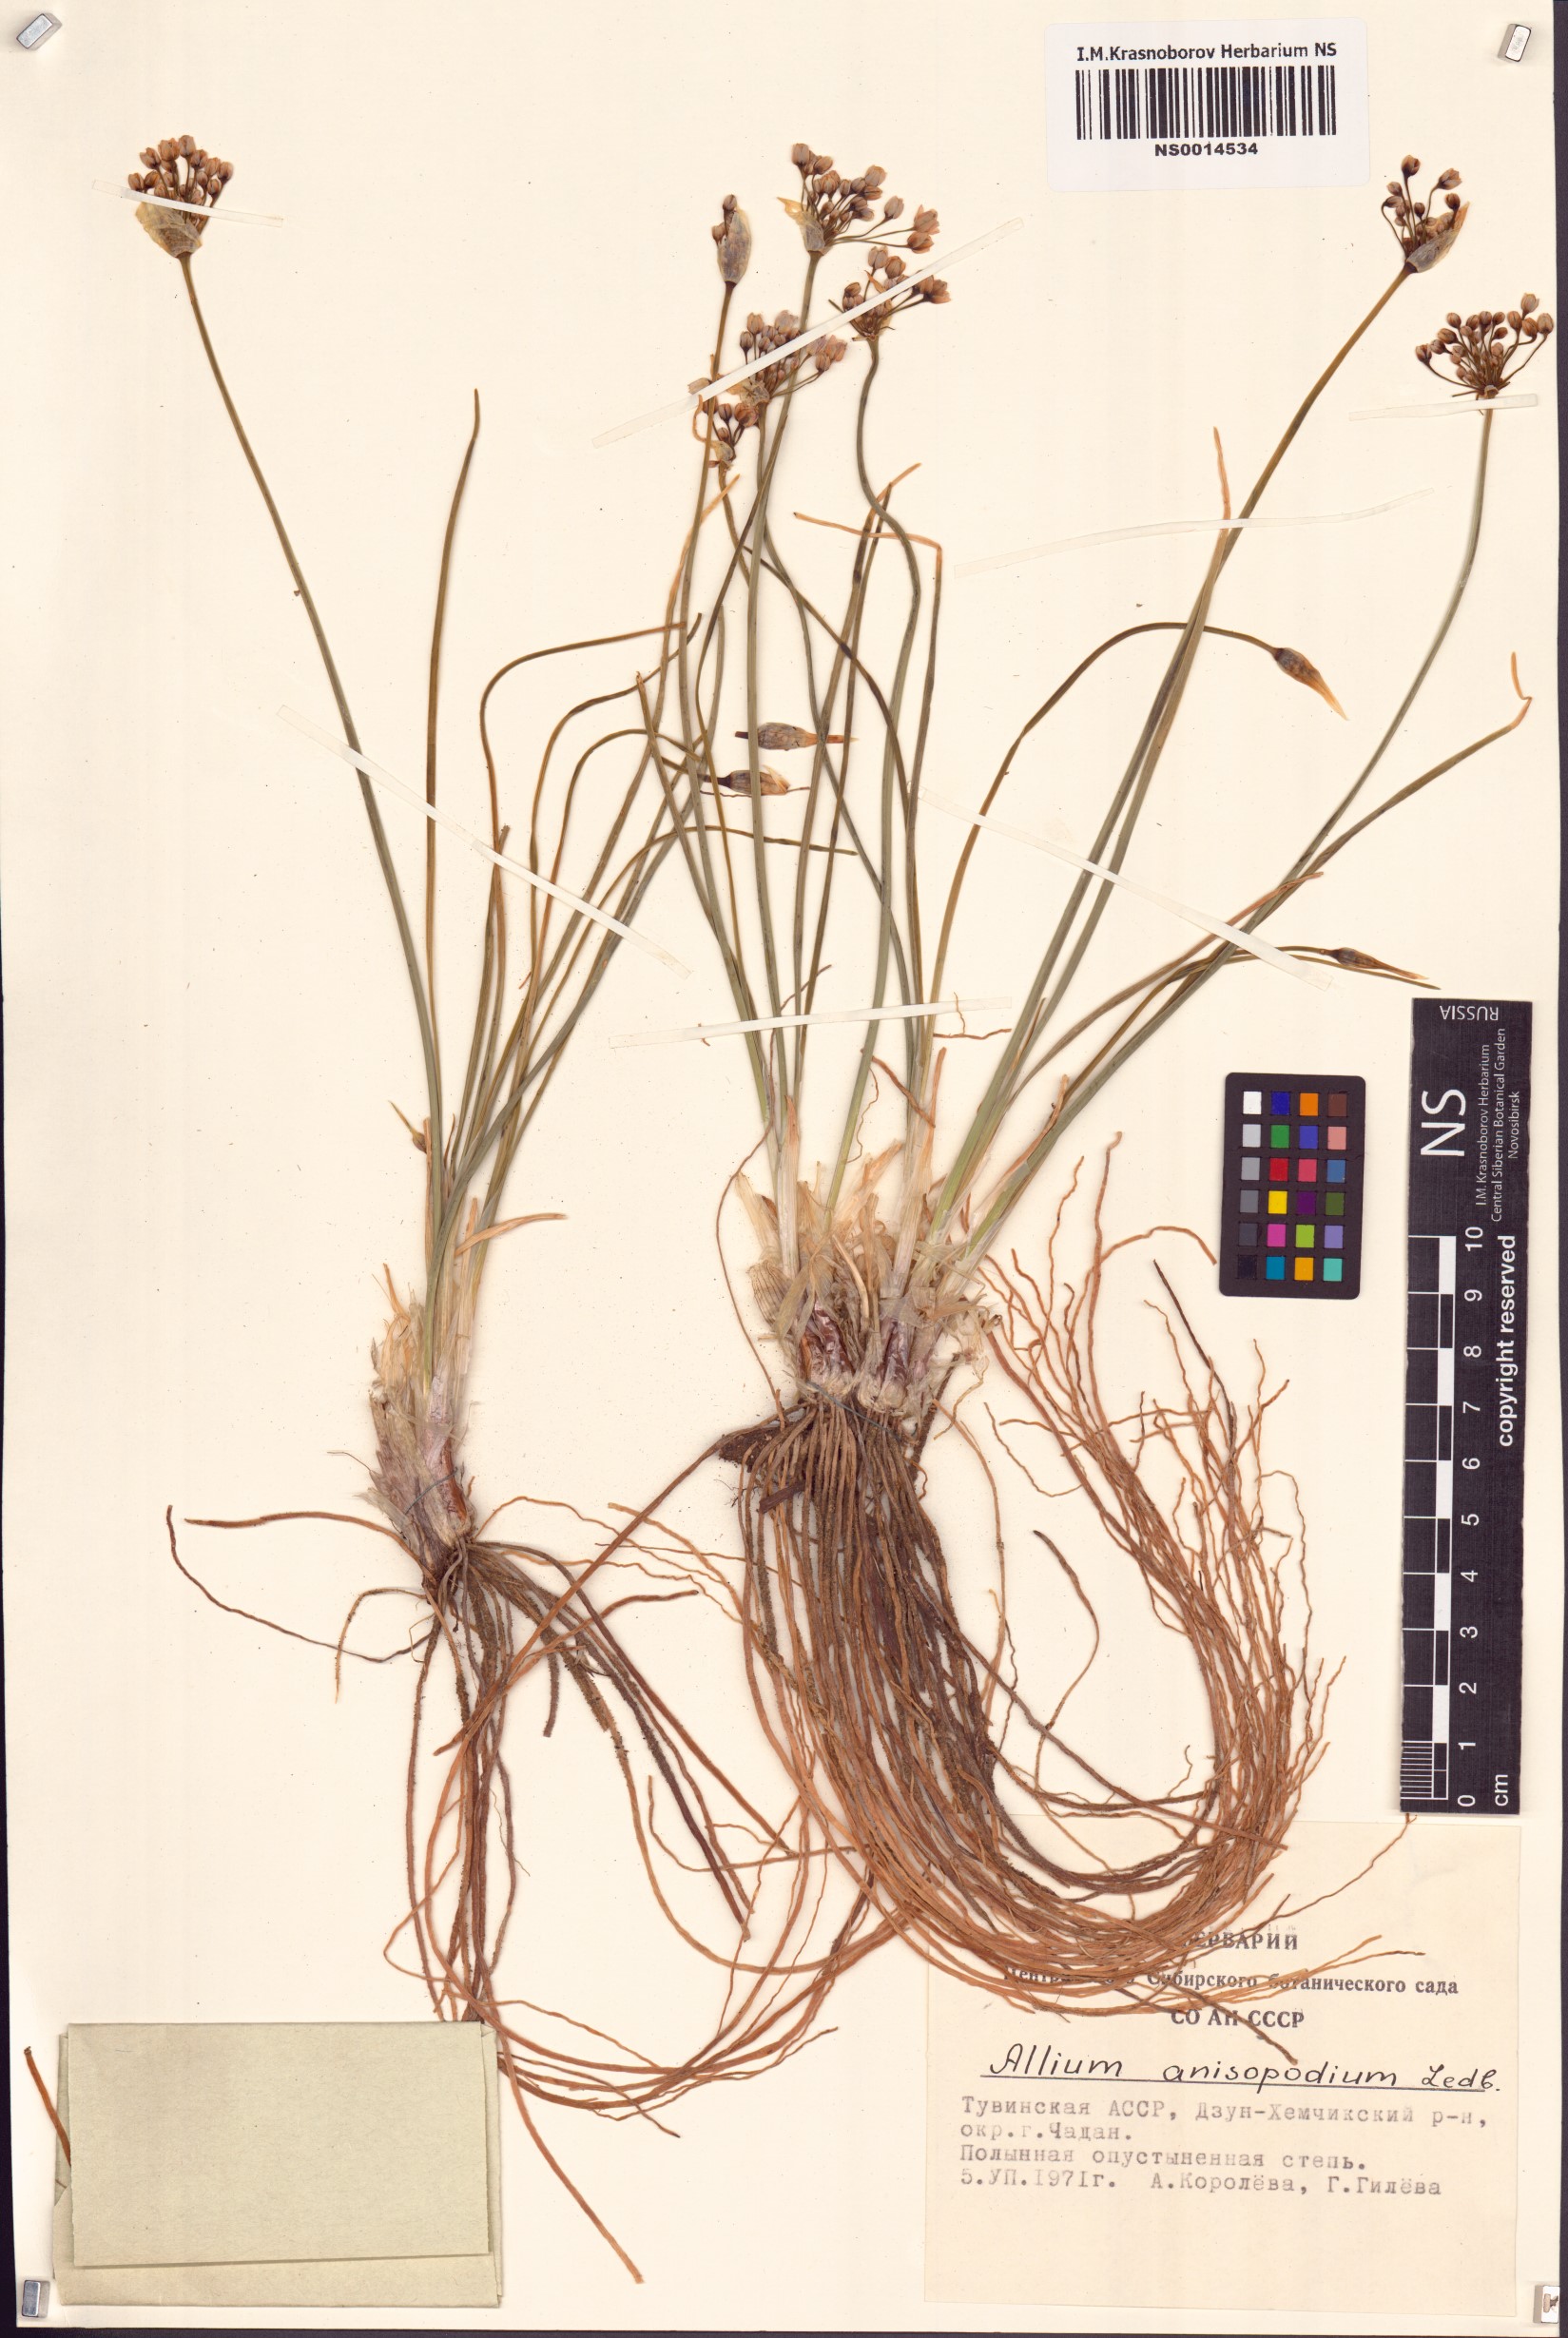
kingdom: Plantae
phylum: Tracheophyta
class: Liliopsida
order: Asparagales
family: Amaryllidaceae
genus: Allium
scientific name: Allium anisopodium
